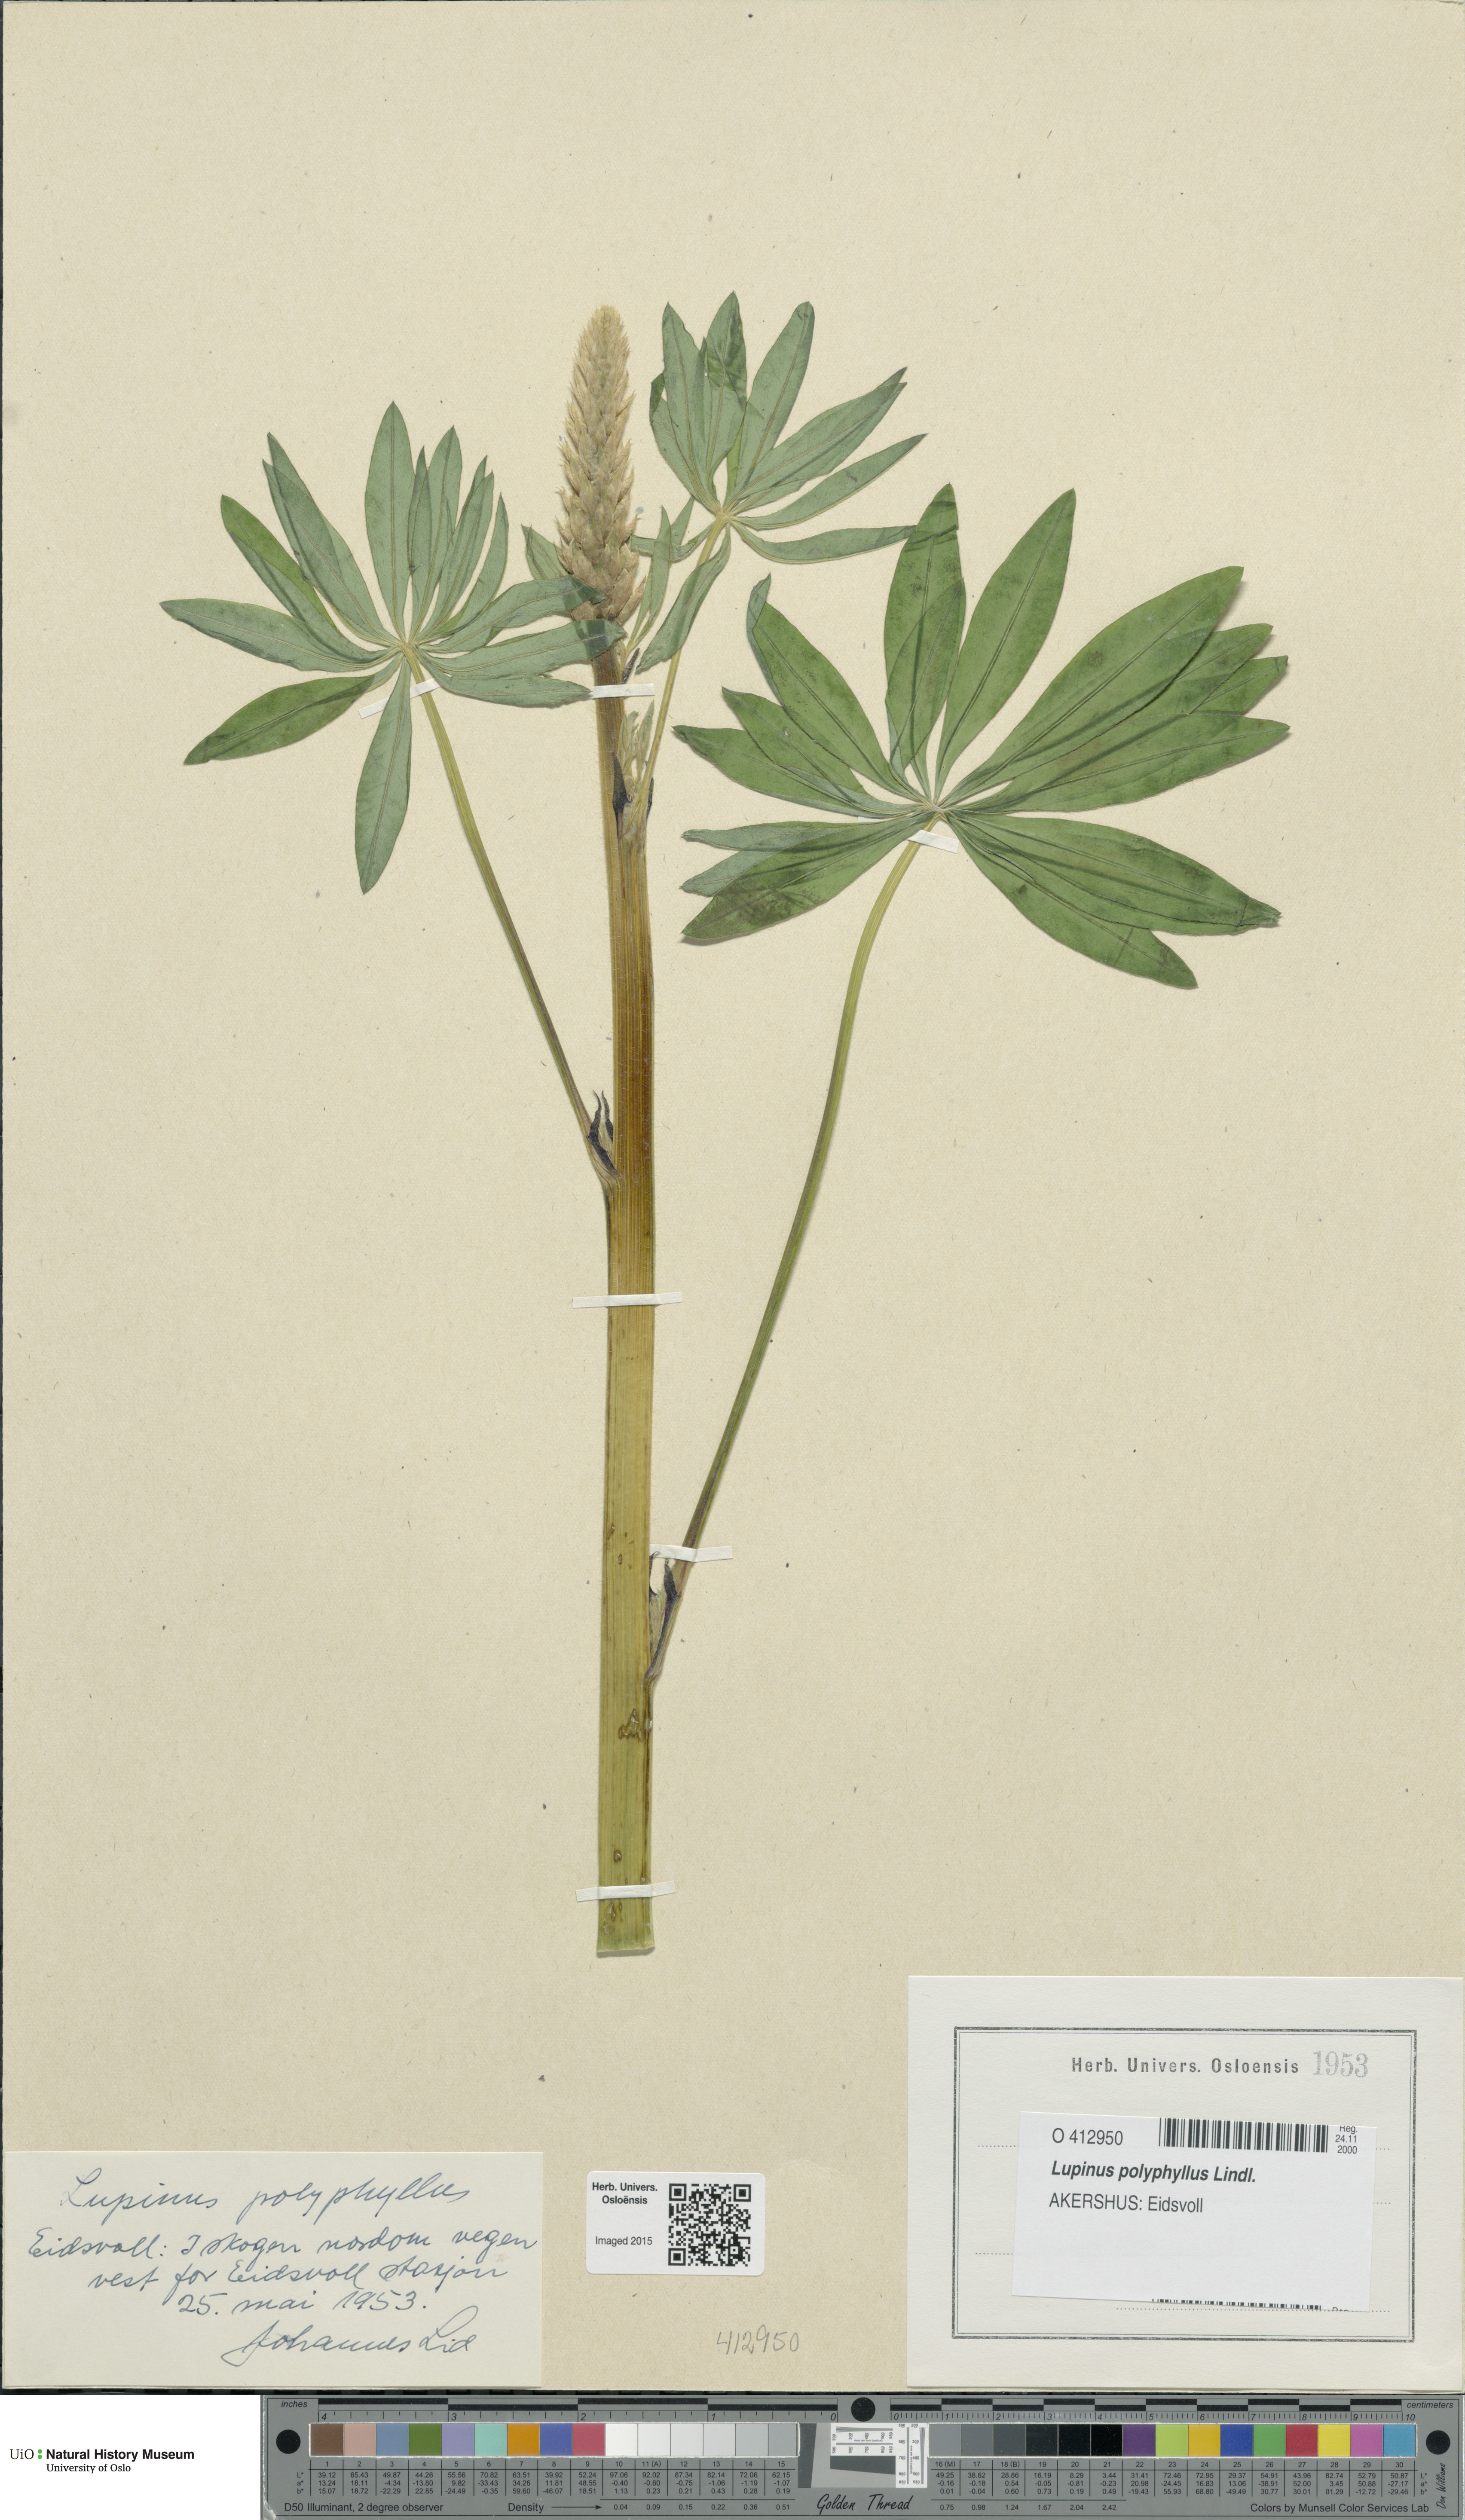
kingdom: Plantae
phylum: Tracheophyta
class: Magnoliopsida
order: Fabales
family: Fabaceae
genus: Lupinus
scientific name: Lupinus polyphyllus
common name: Garden lupin
